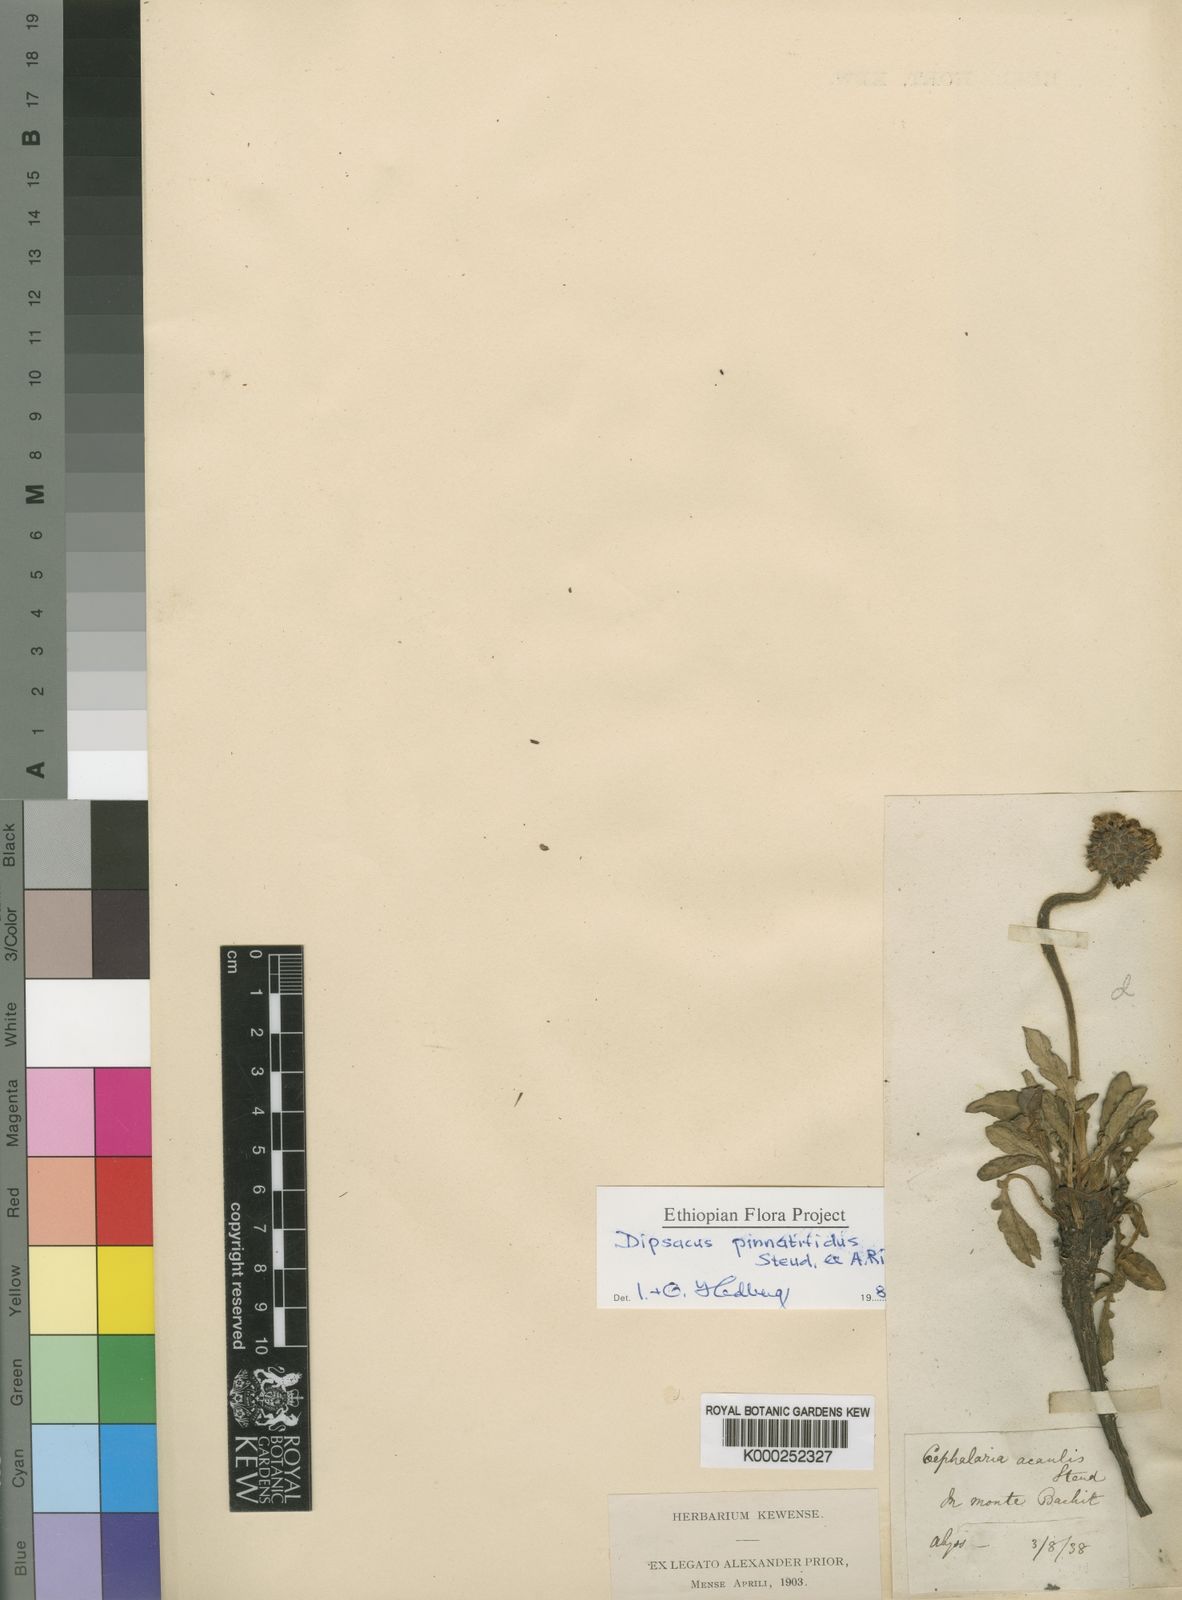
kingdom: Plantae
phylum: Tracheophyta
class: Magnoliopsida
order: Dipsacales
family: Caprifoliaceae
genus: Dipsacus
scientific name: Dipsacus pinnatifidus
